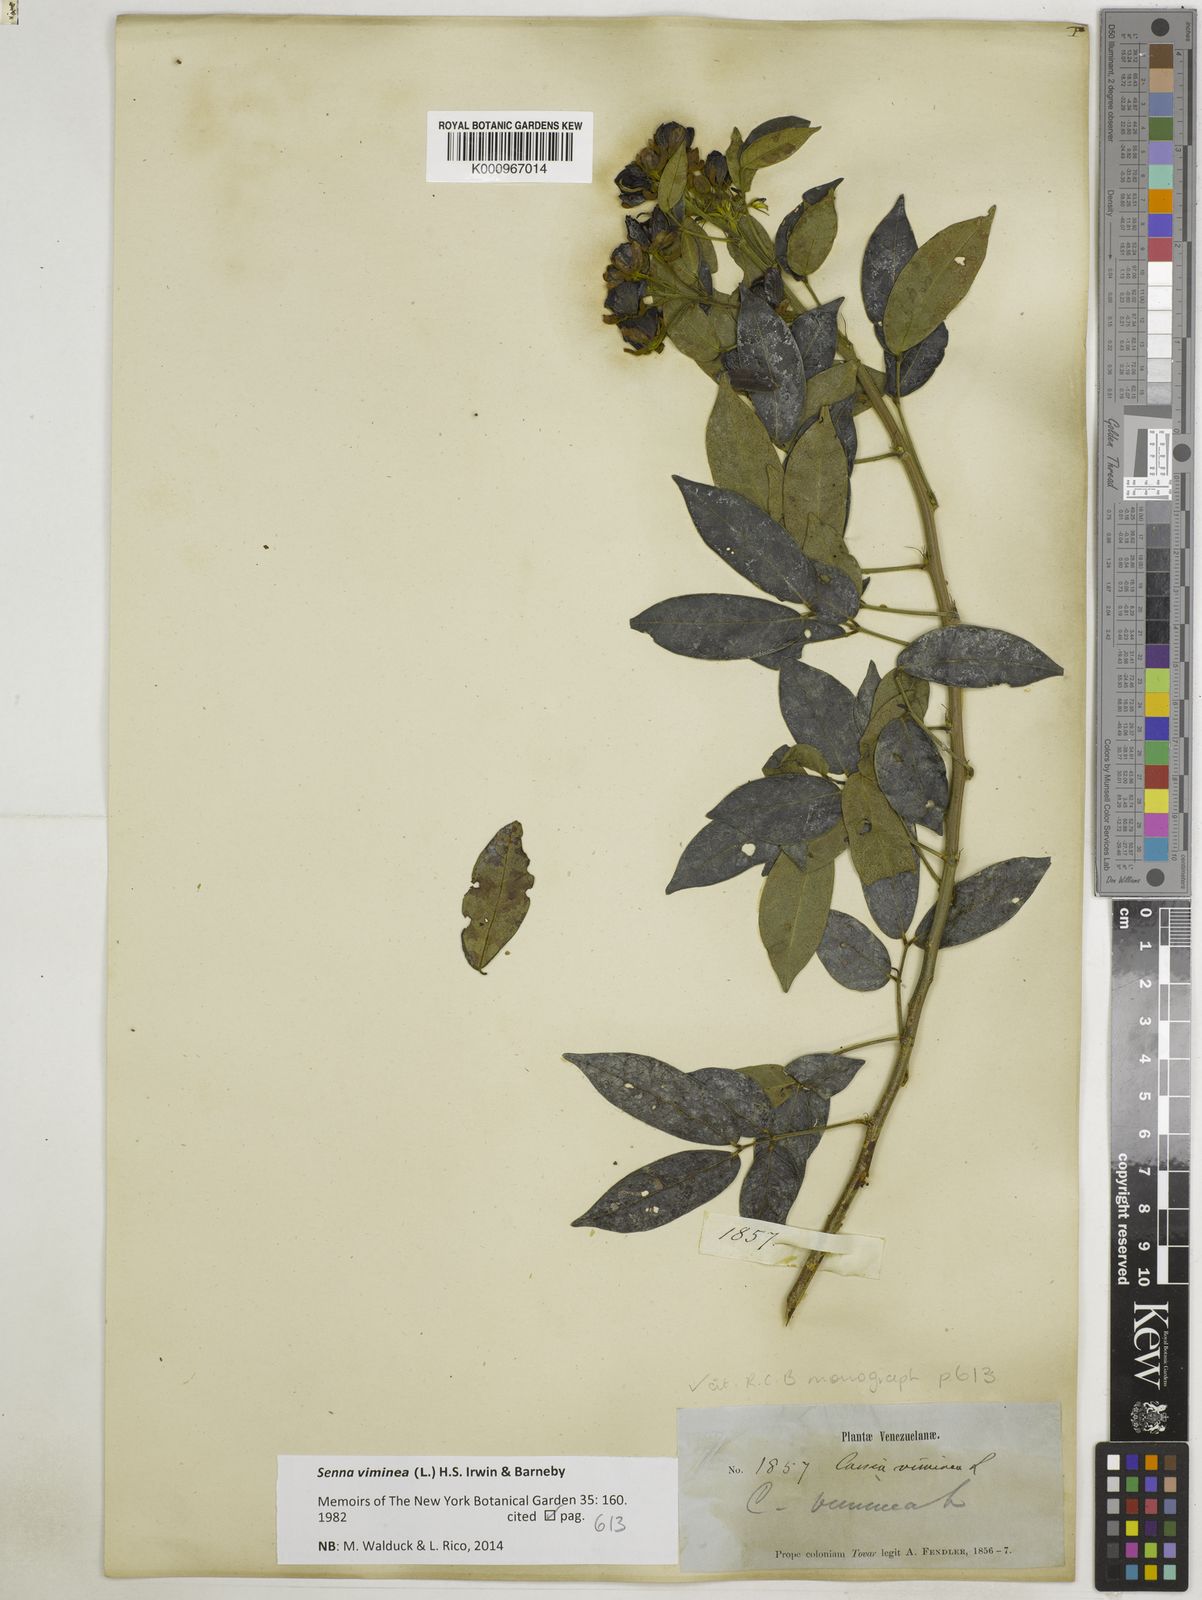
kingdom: Plantae
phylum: Tracheophyta
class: Magnoliopsida
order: Fabales
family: Fabaceae
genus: Senna
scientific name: Senna viminea
